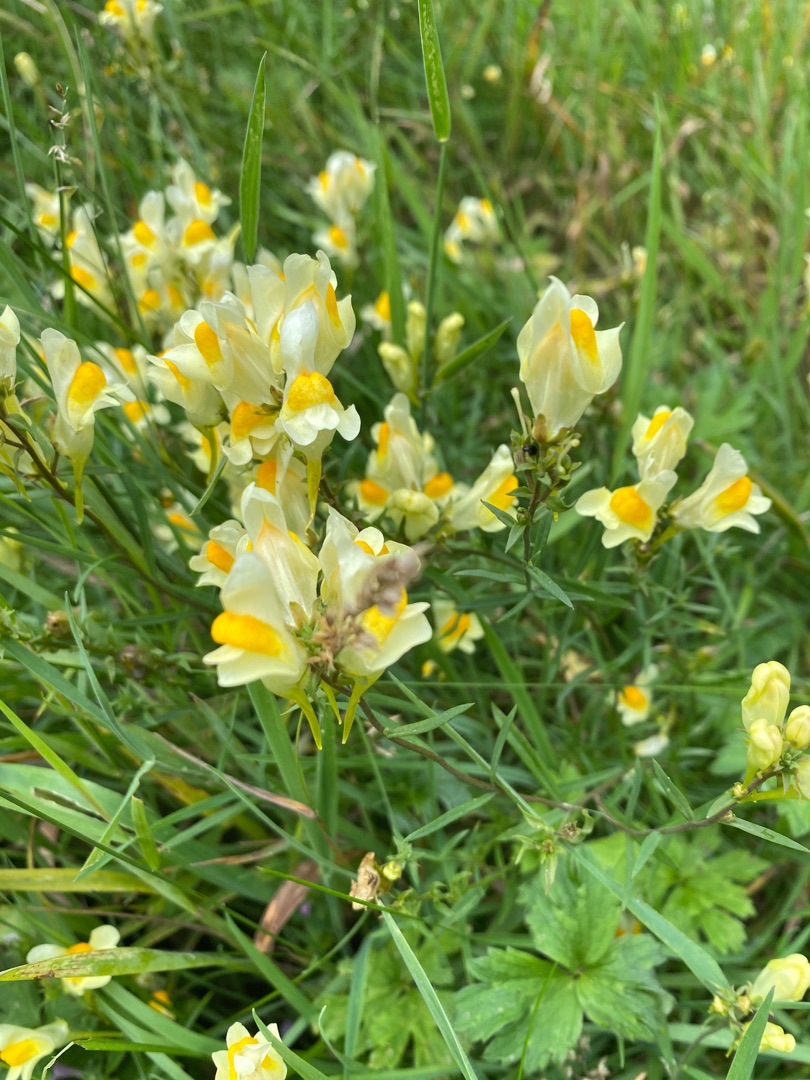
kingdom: Plantae
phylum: Tracheophyta
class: Magnoliopsida
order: Lamiales
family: Plantaginaceae
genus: Linaria
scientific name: Linaria vulgaris
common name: Almindelig torskemund
